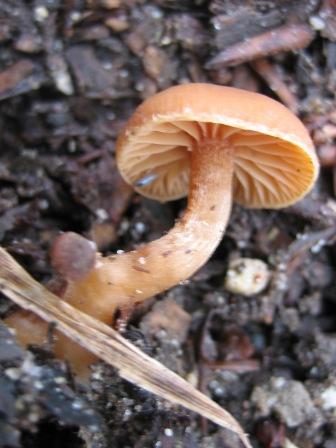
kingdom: Fungi
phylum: Basidiomycota
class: Agaricomycetes
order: Agaricales
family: Tubariaceae
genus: Tubaria
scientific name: Tubaria furfuracea
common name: kliddet fnughat
